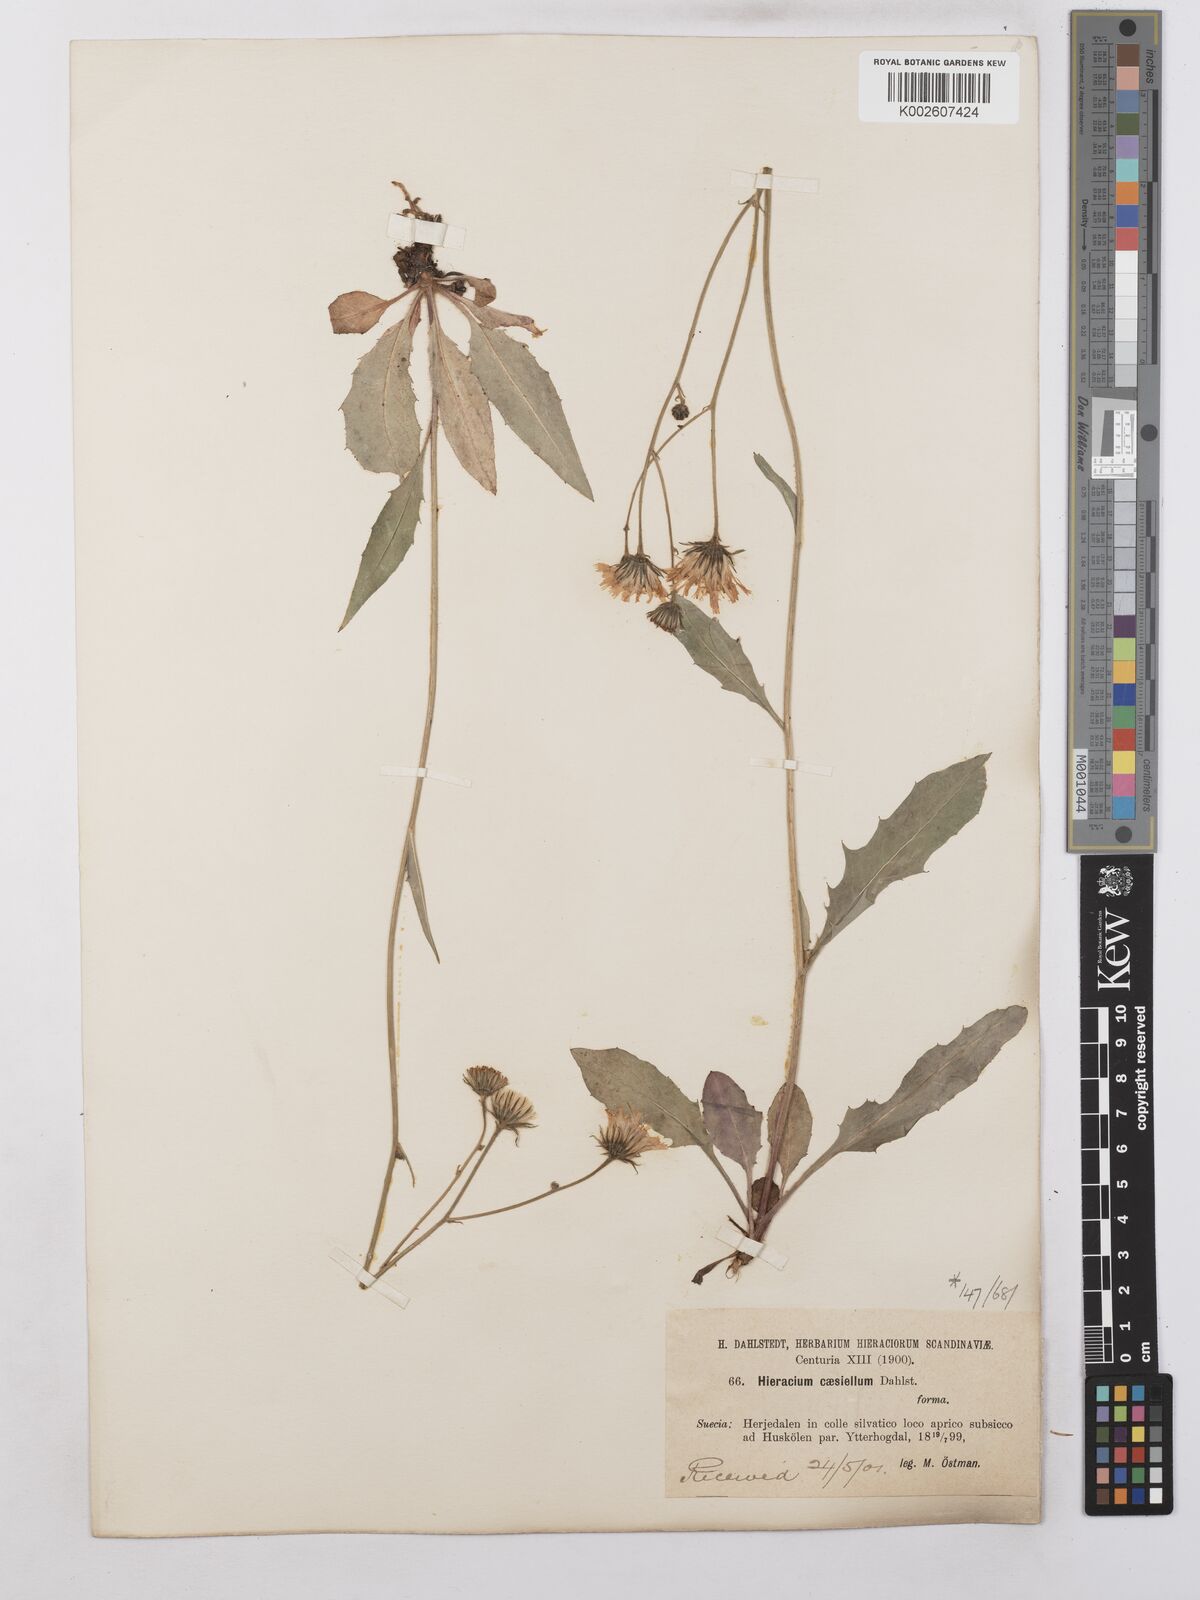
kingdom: Plantae
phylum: Tracheophyta
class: Magnoliopsida
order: Asterales
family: Asteraceae
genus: Hieracium
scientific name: Hieracium caesium
